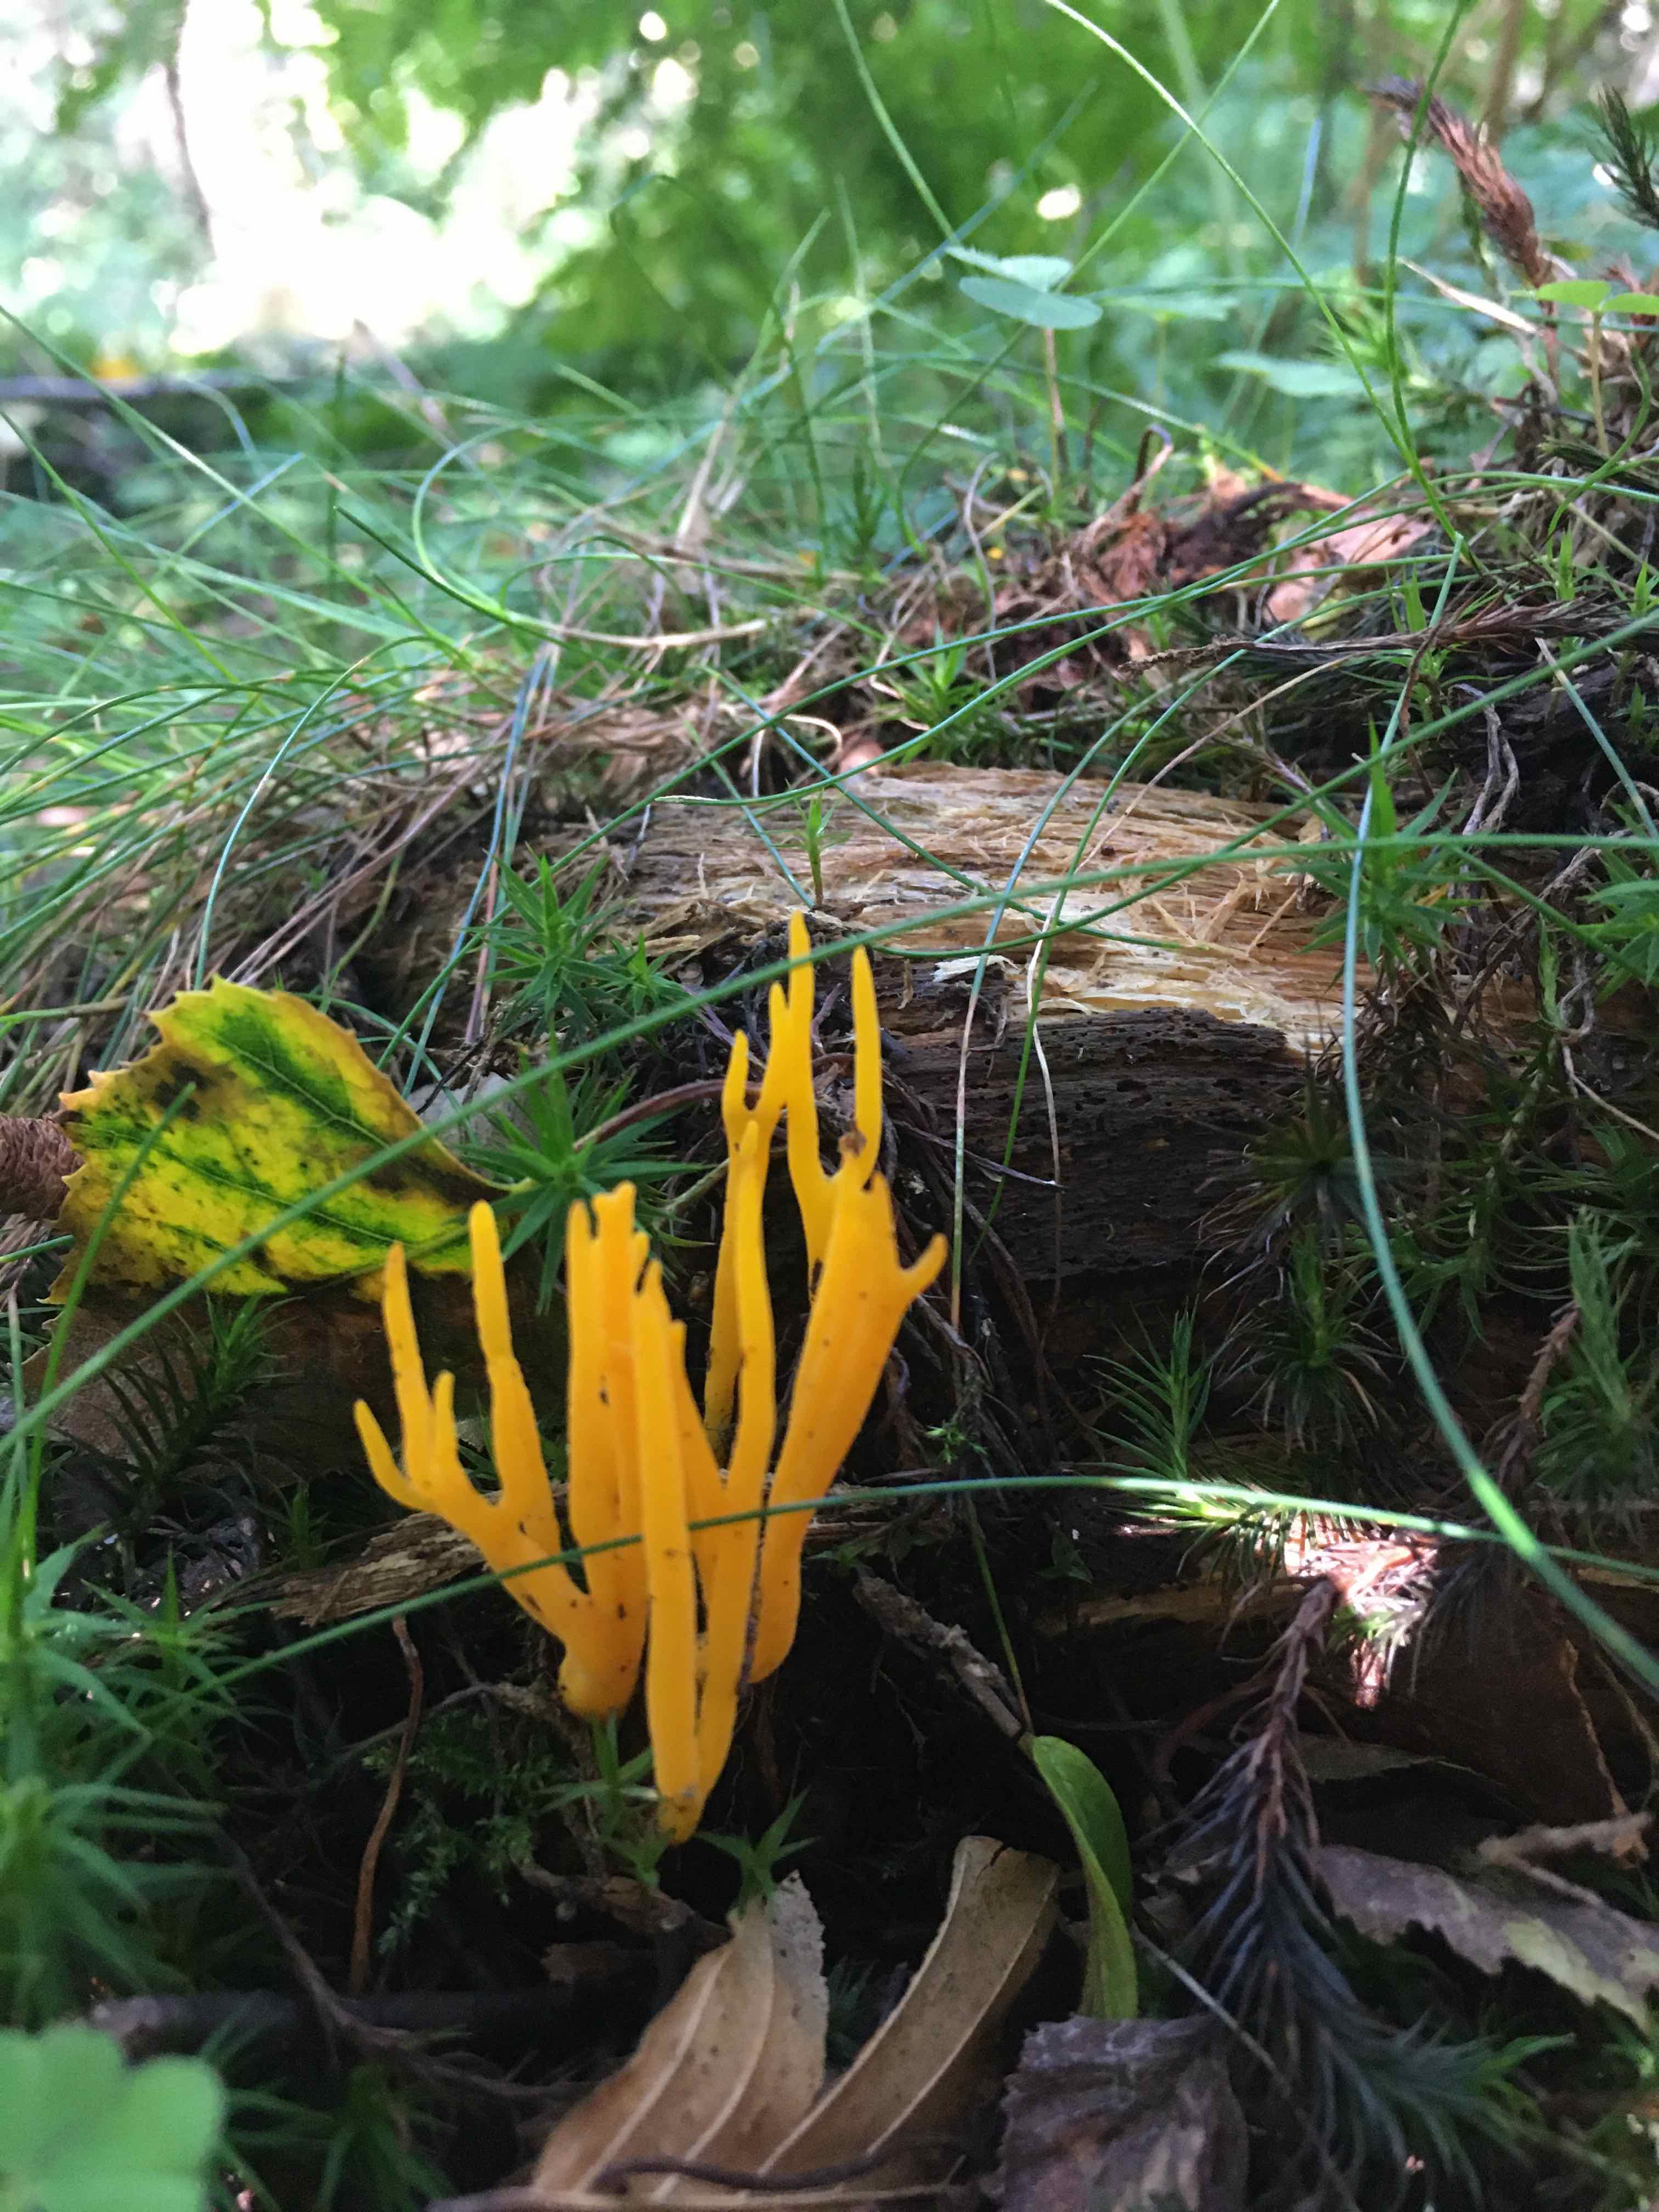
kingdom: Fungi
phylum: Basidiomycota
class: Dacrymycetes
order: Dacrymycetales
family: Dacrymycetaceae
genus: Calocera
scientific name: Calocera viscosa
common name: almindelig guldgaffel
